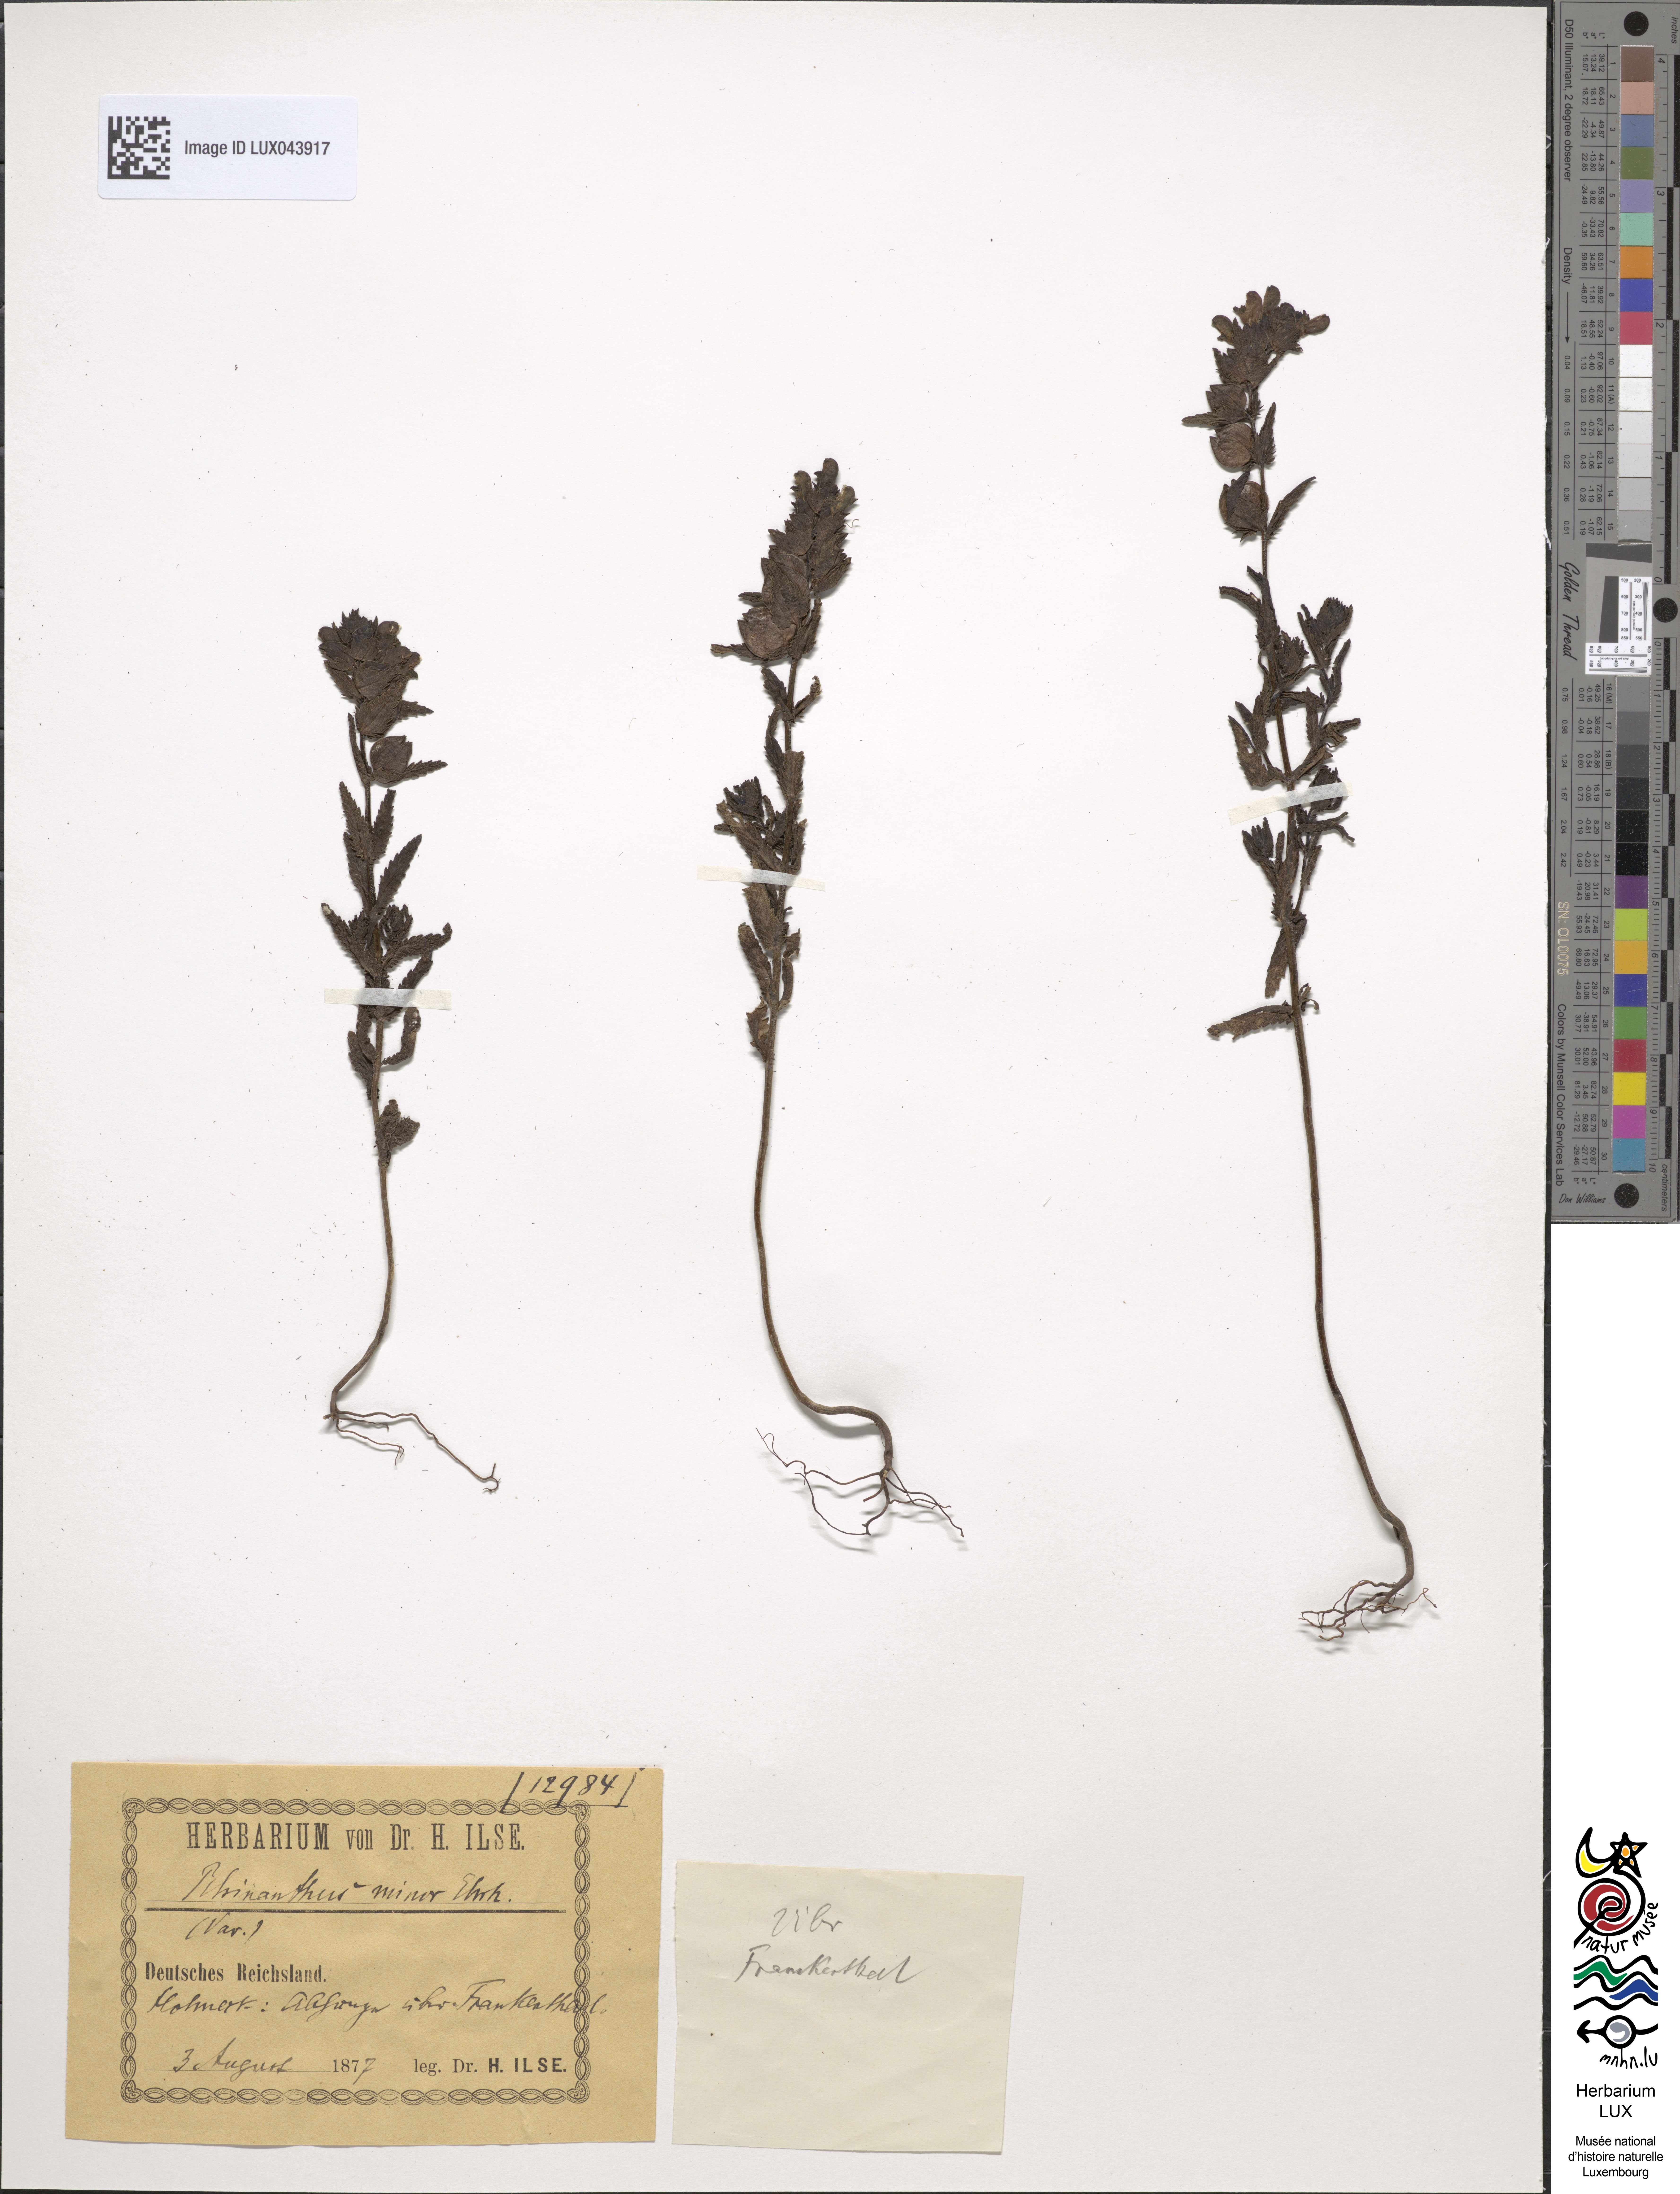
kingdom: Plantae
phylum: Tracheophyta
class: Magnoliopsida
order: Lamiales
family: Orobanchaceae
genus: Rhinanthus
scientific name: Rhinanthus minor
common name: Yellow-rattle
